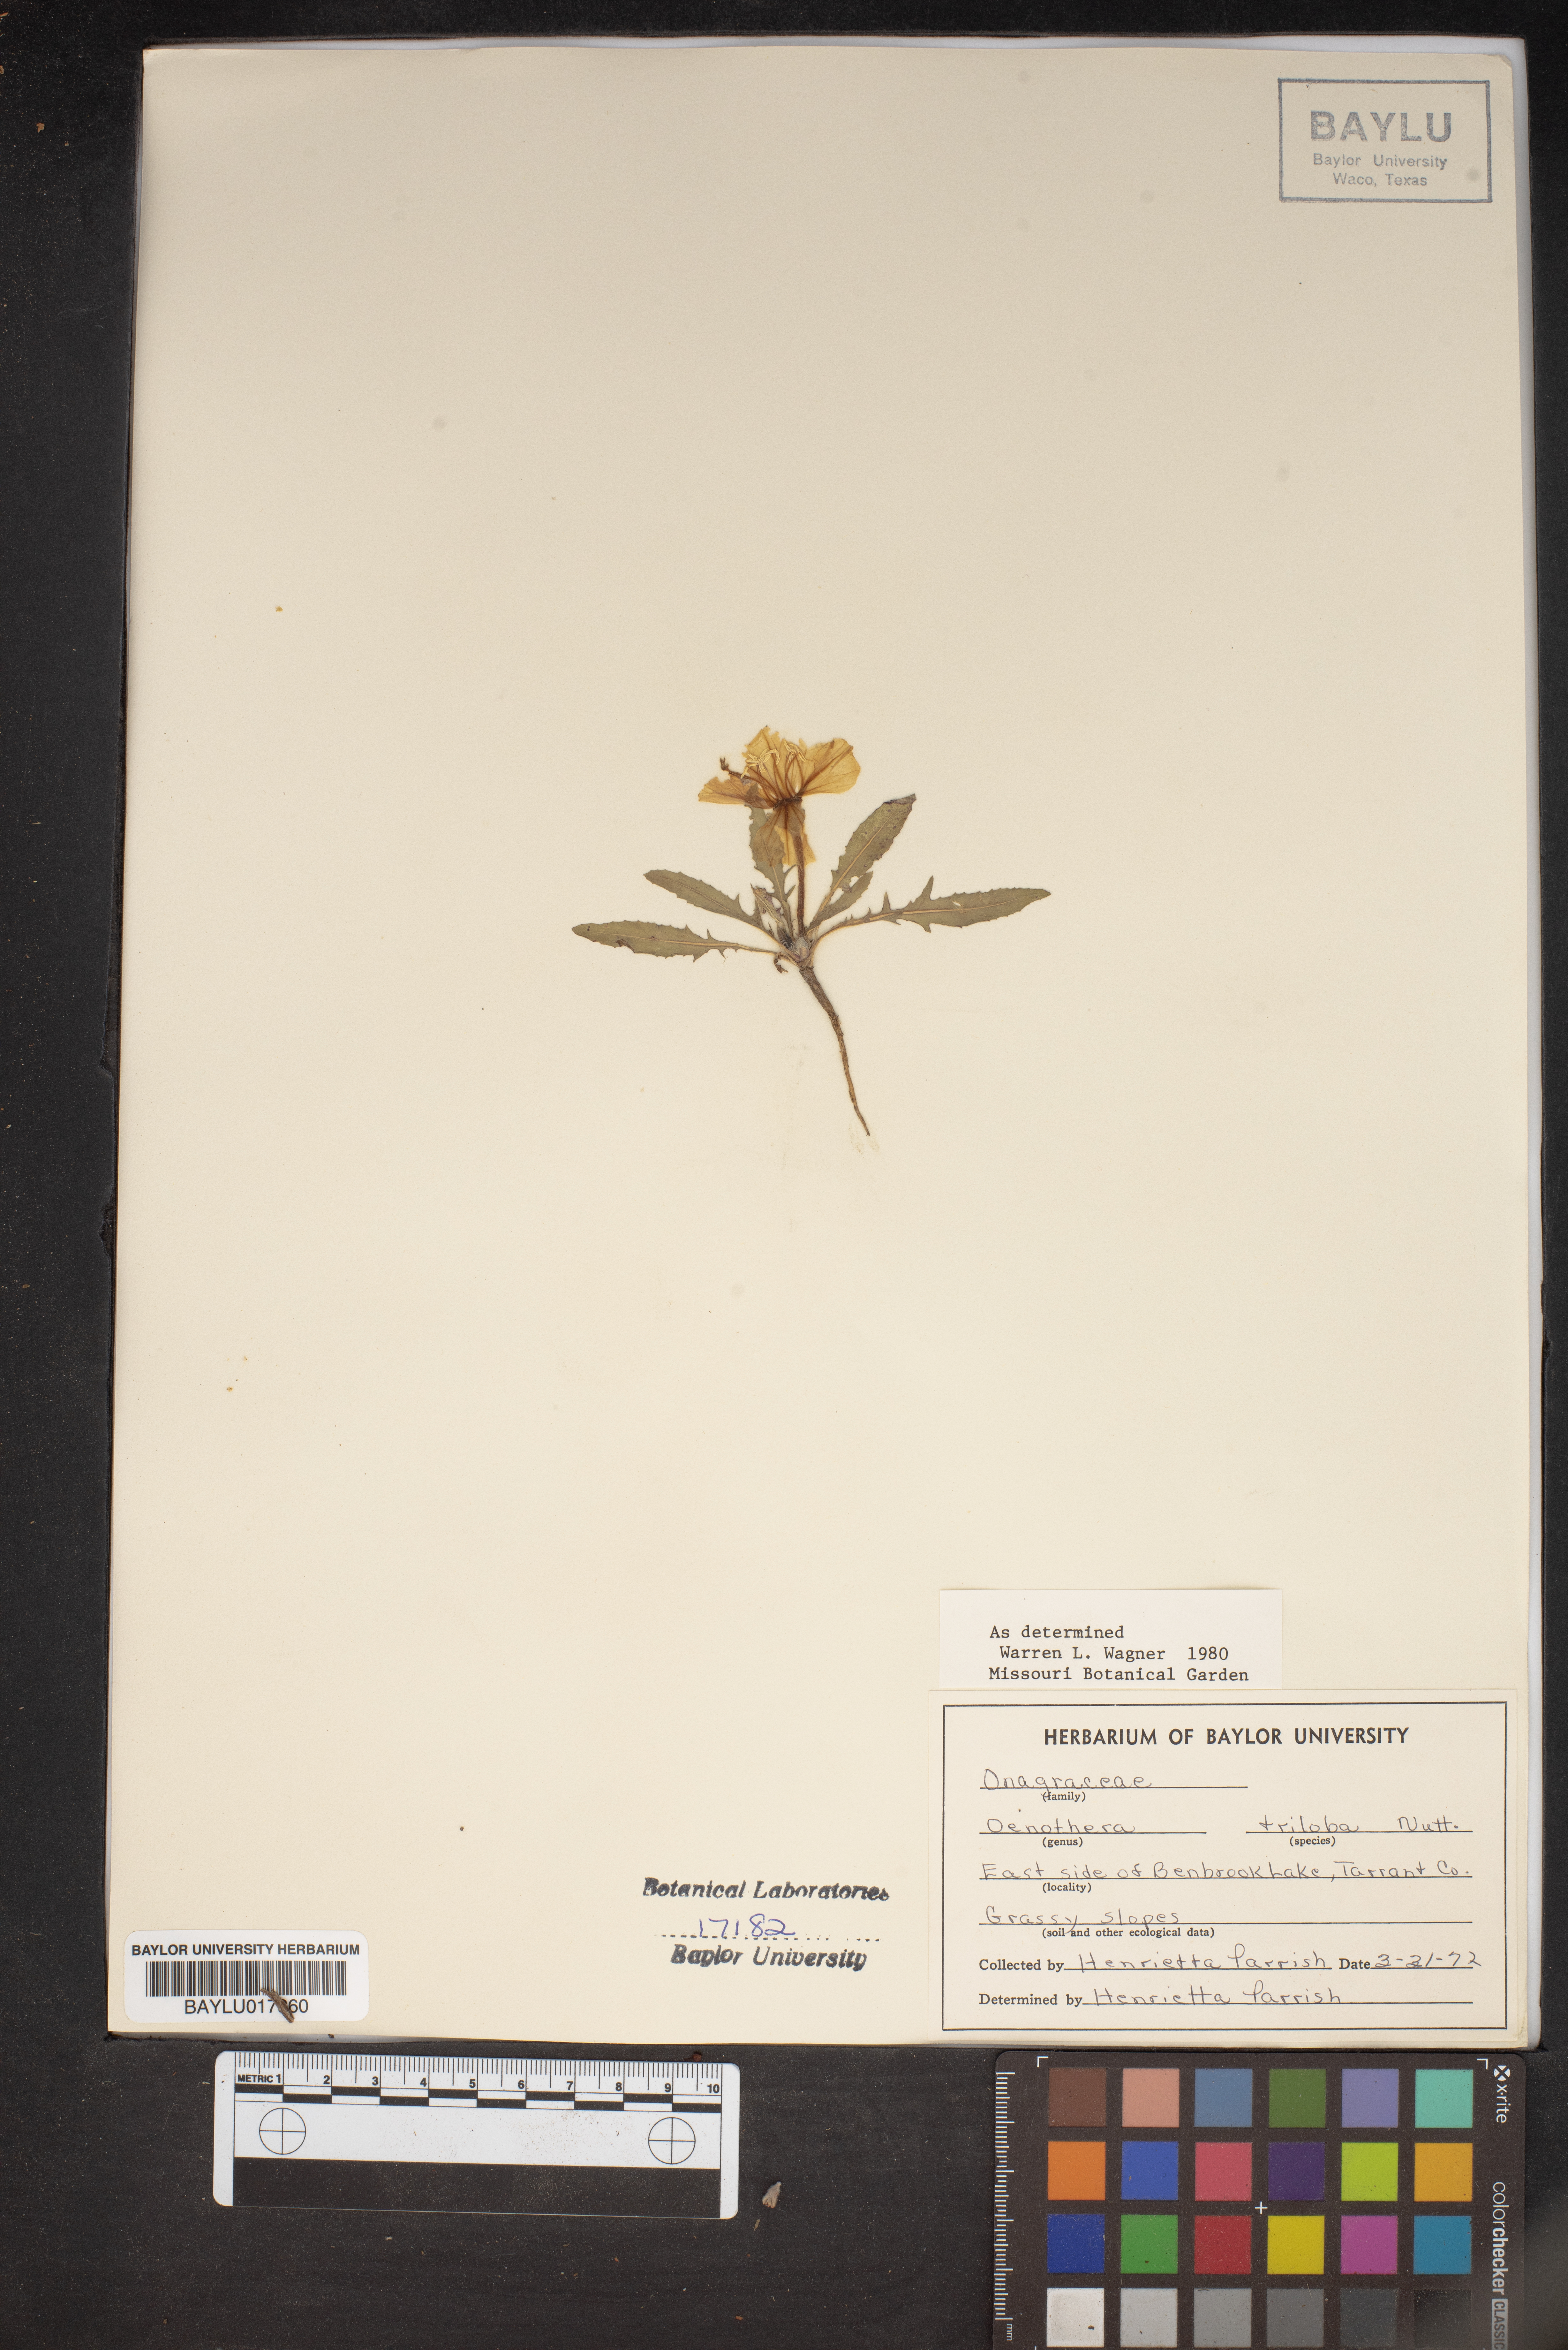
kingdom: Plantae
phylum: Tracheophyta
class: Magnoliopsida
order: Myrtales
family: Onagraceae
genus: Oenothera
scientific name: Oenothera triloba
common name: Sessile evening-primrose
